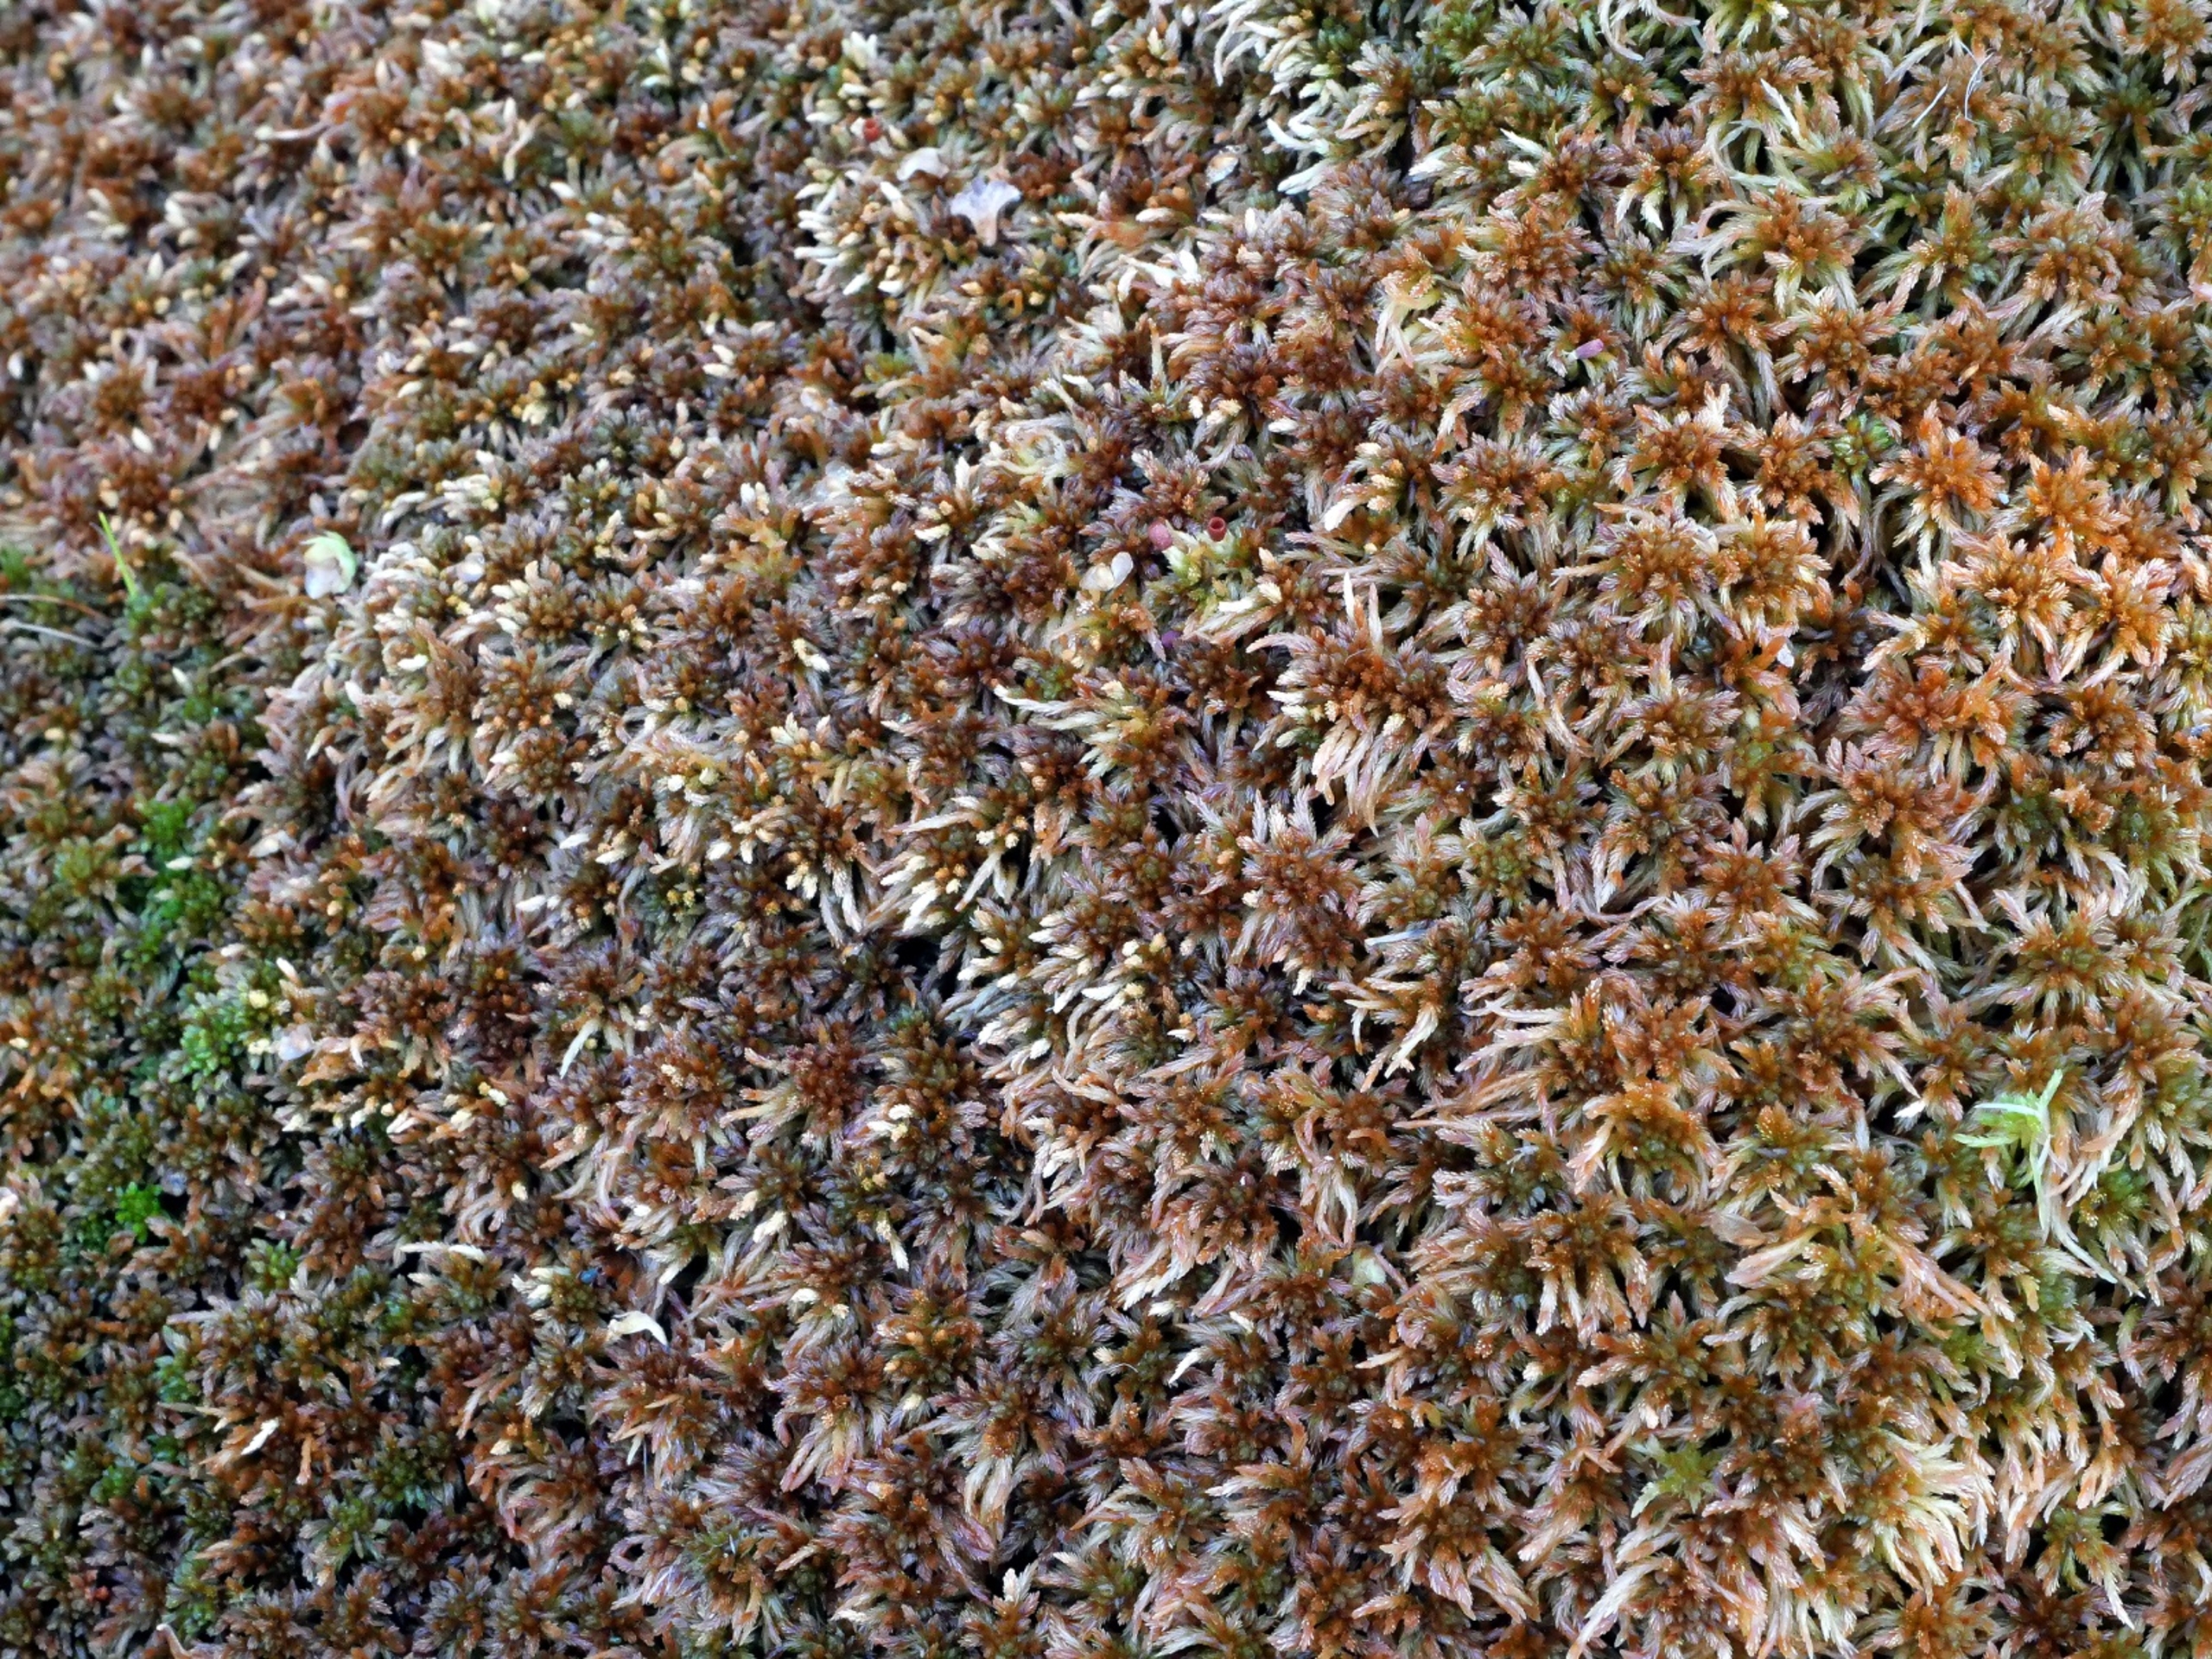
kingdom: Plantae
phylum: Bryophyta
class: Sphagnopsida
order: Sphagnales
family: Sphagnaceae
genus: Sphagnum
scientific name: Sphagnum fuscum
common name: Rustbrun tørvemos
